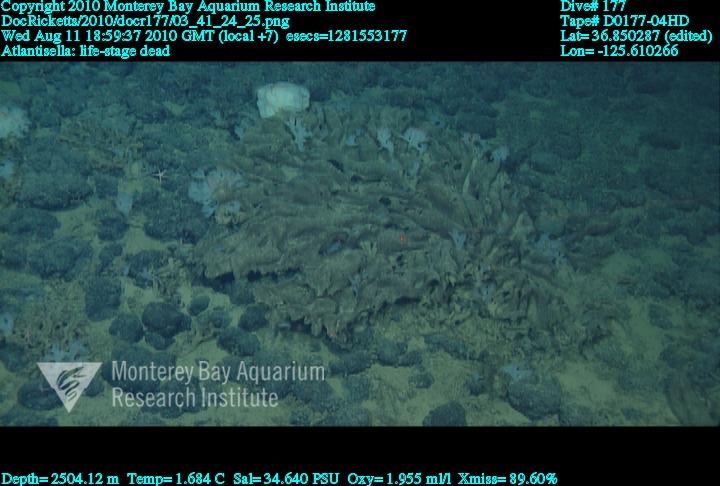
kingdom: Animalia
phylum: Porifera
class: Hexactinellida
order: Lyssacinosida
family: Euplectellidae
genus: Atlantisella
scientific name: Atlantisella
